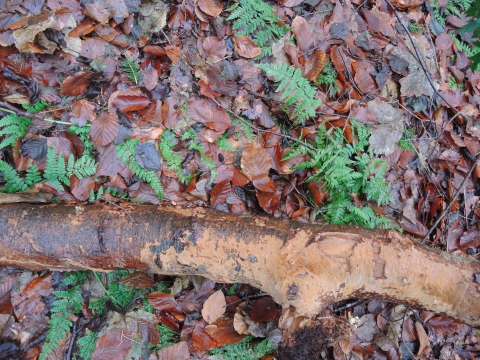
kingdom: Fungi
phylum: Basidiomycota
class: Agaricomycetes
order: Hymenochaetales
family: Hymenochaetaceae
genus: Fuscoporia
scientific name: Fuscoporia ferruginosa
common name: rustbrun ildporesvamp
